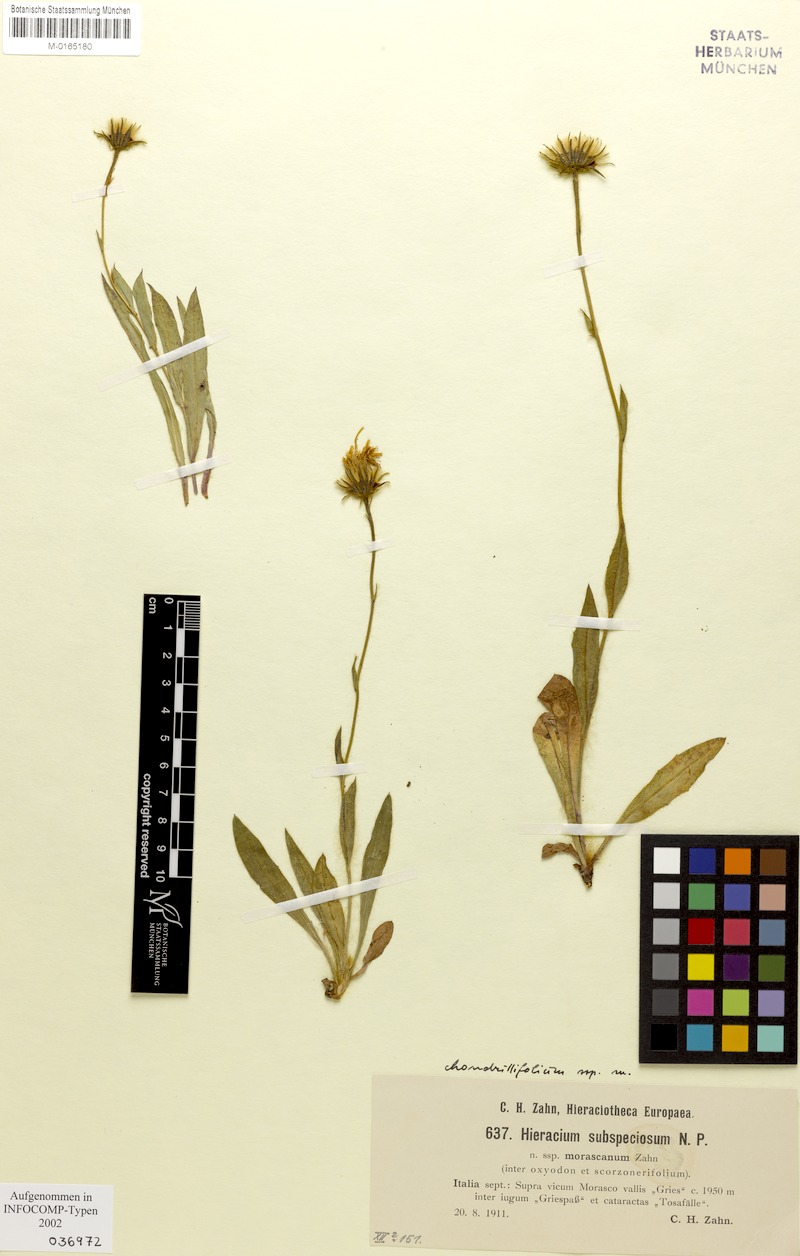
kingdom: Plantae
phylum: Tracheophyta
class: Magnoliopsida
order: Asterales
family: Asteraceae
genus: Hieracium
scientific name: Hieracium subspeciosum
